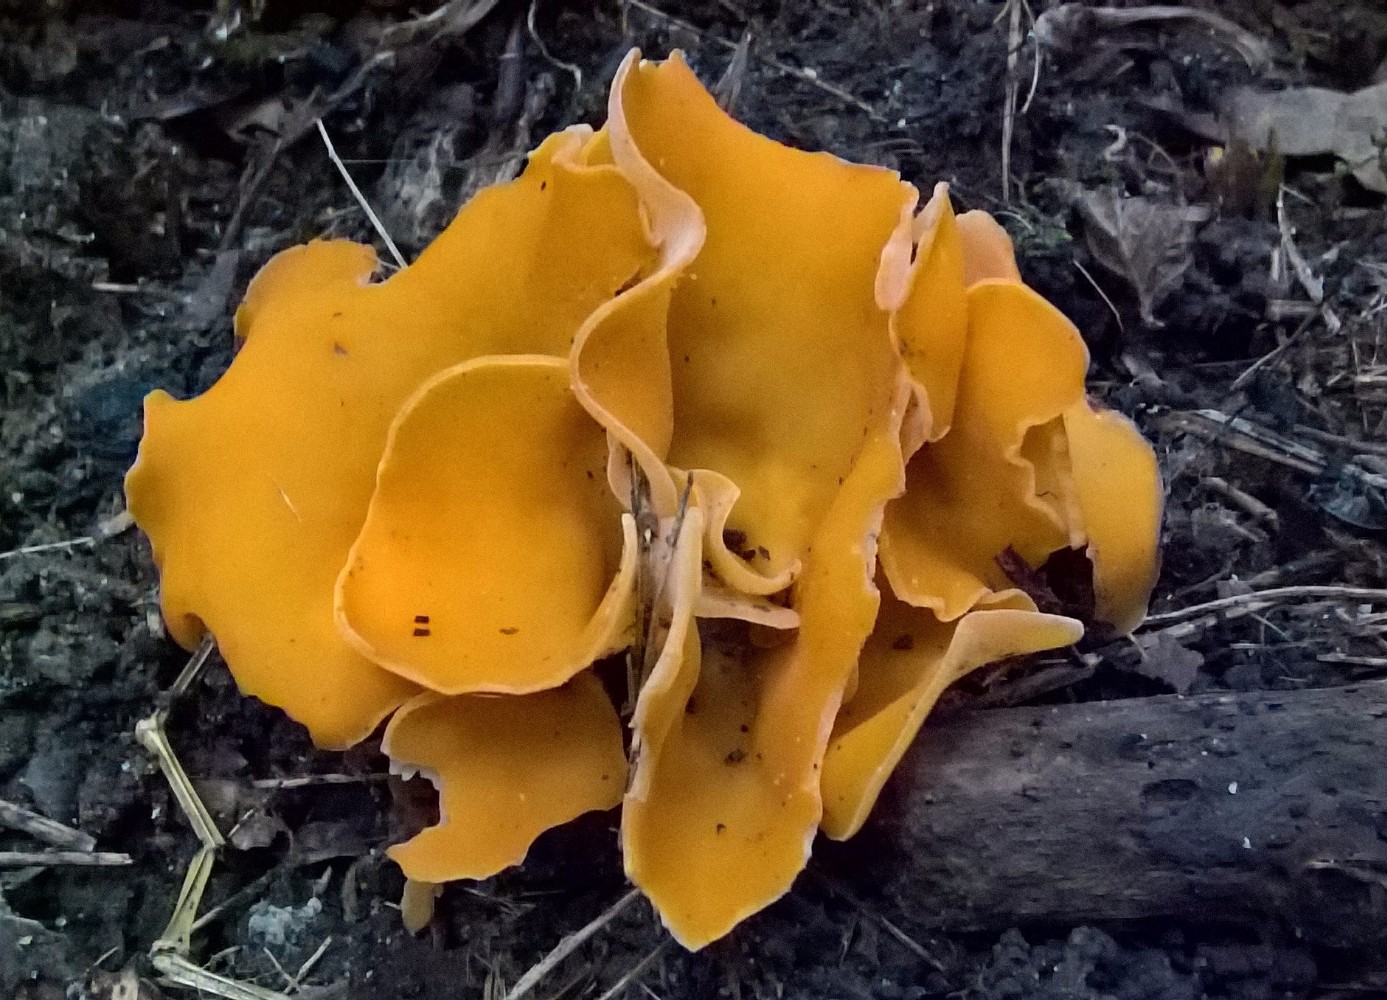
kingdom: Fungi
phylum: Ascomycota
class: Pezizomycetes
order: Pezizales
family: Pyronemataceae
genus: Aleuria
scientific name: Aleuria aurantia
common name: almindelig orangebæger
